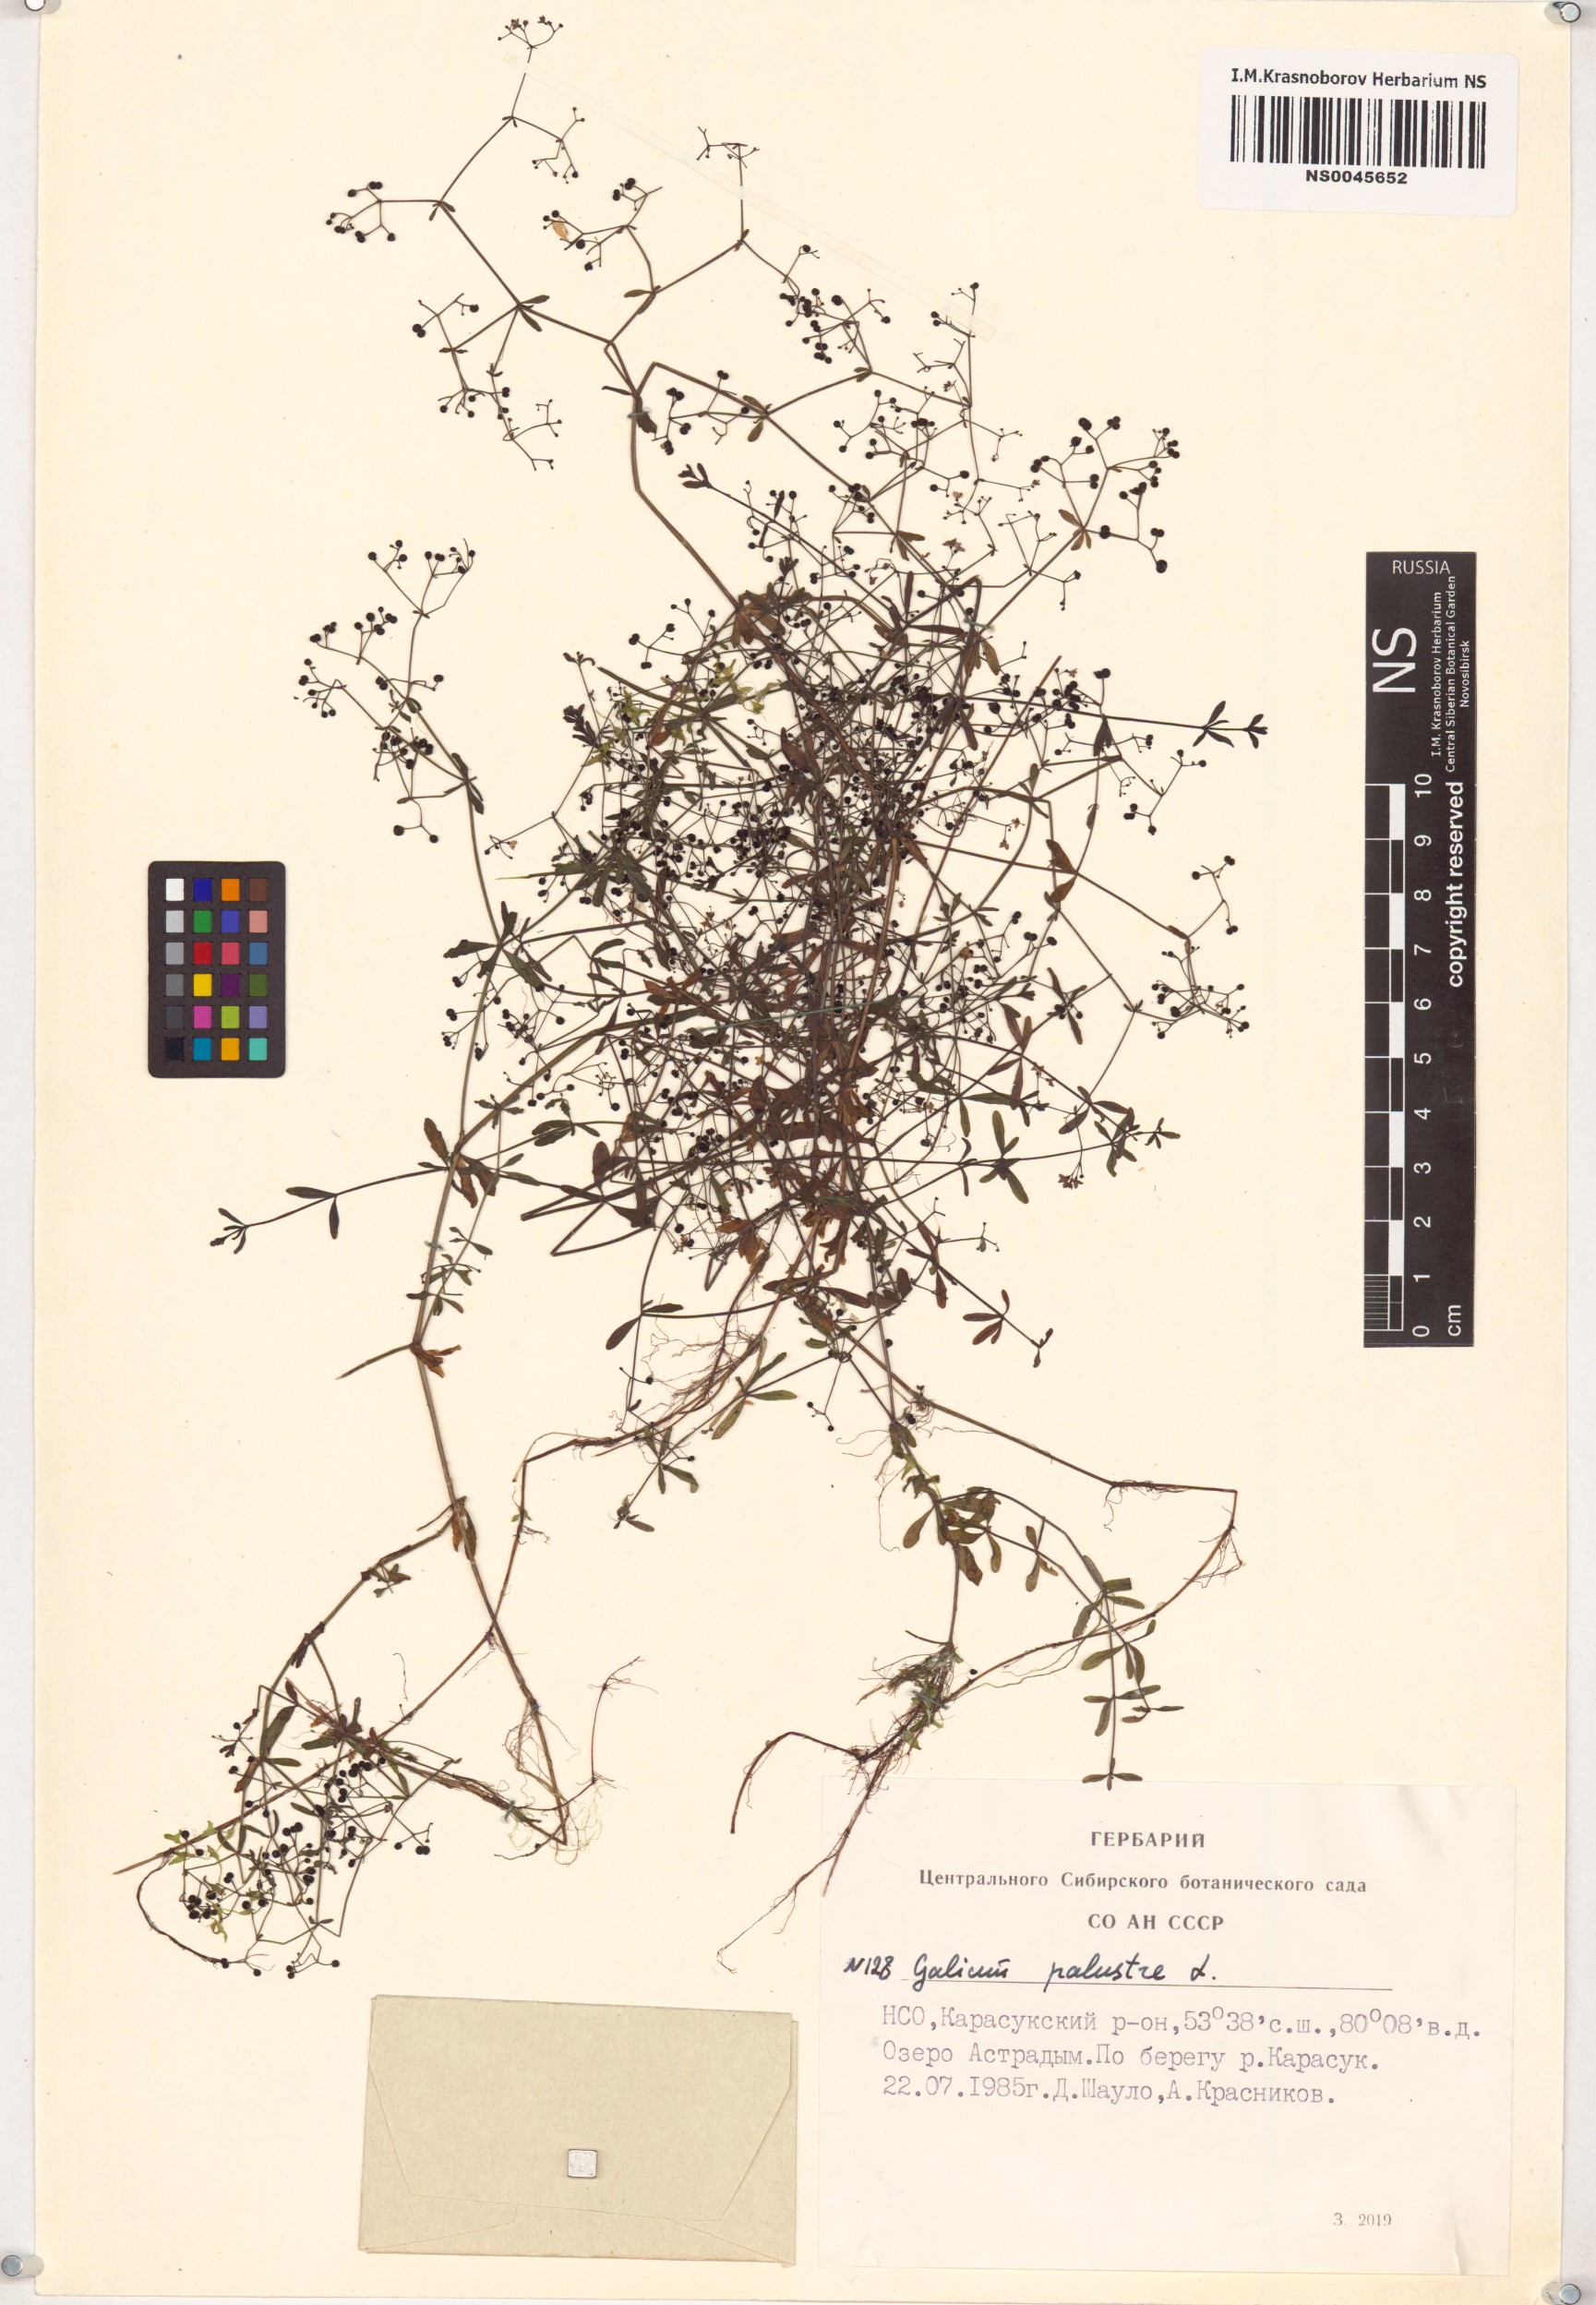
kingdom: Plantae
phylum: Tracheophyta
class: Magnoliopsida
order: Gentianales
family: Rubiaceae
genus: Galium
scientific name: Galium palustre
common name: Common marsh-bedstraw
